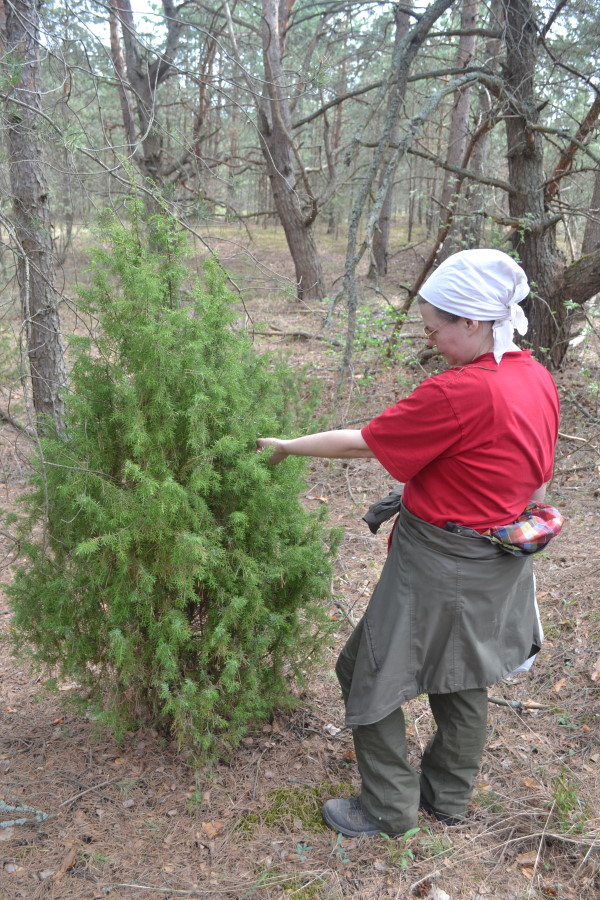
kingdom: Plantae
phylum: Tracheophyta
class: Pinopsida
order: Pinales
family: Cupressaceae
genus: Juniperus
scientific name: Juniperus communis
